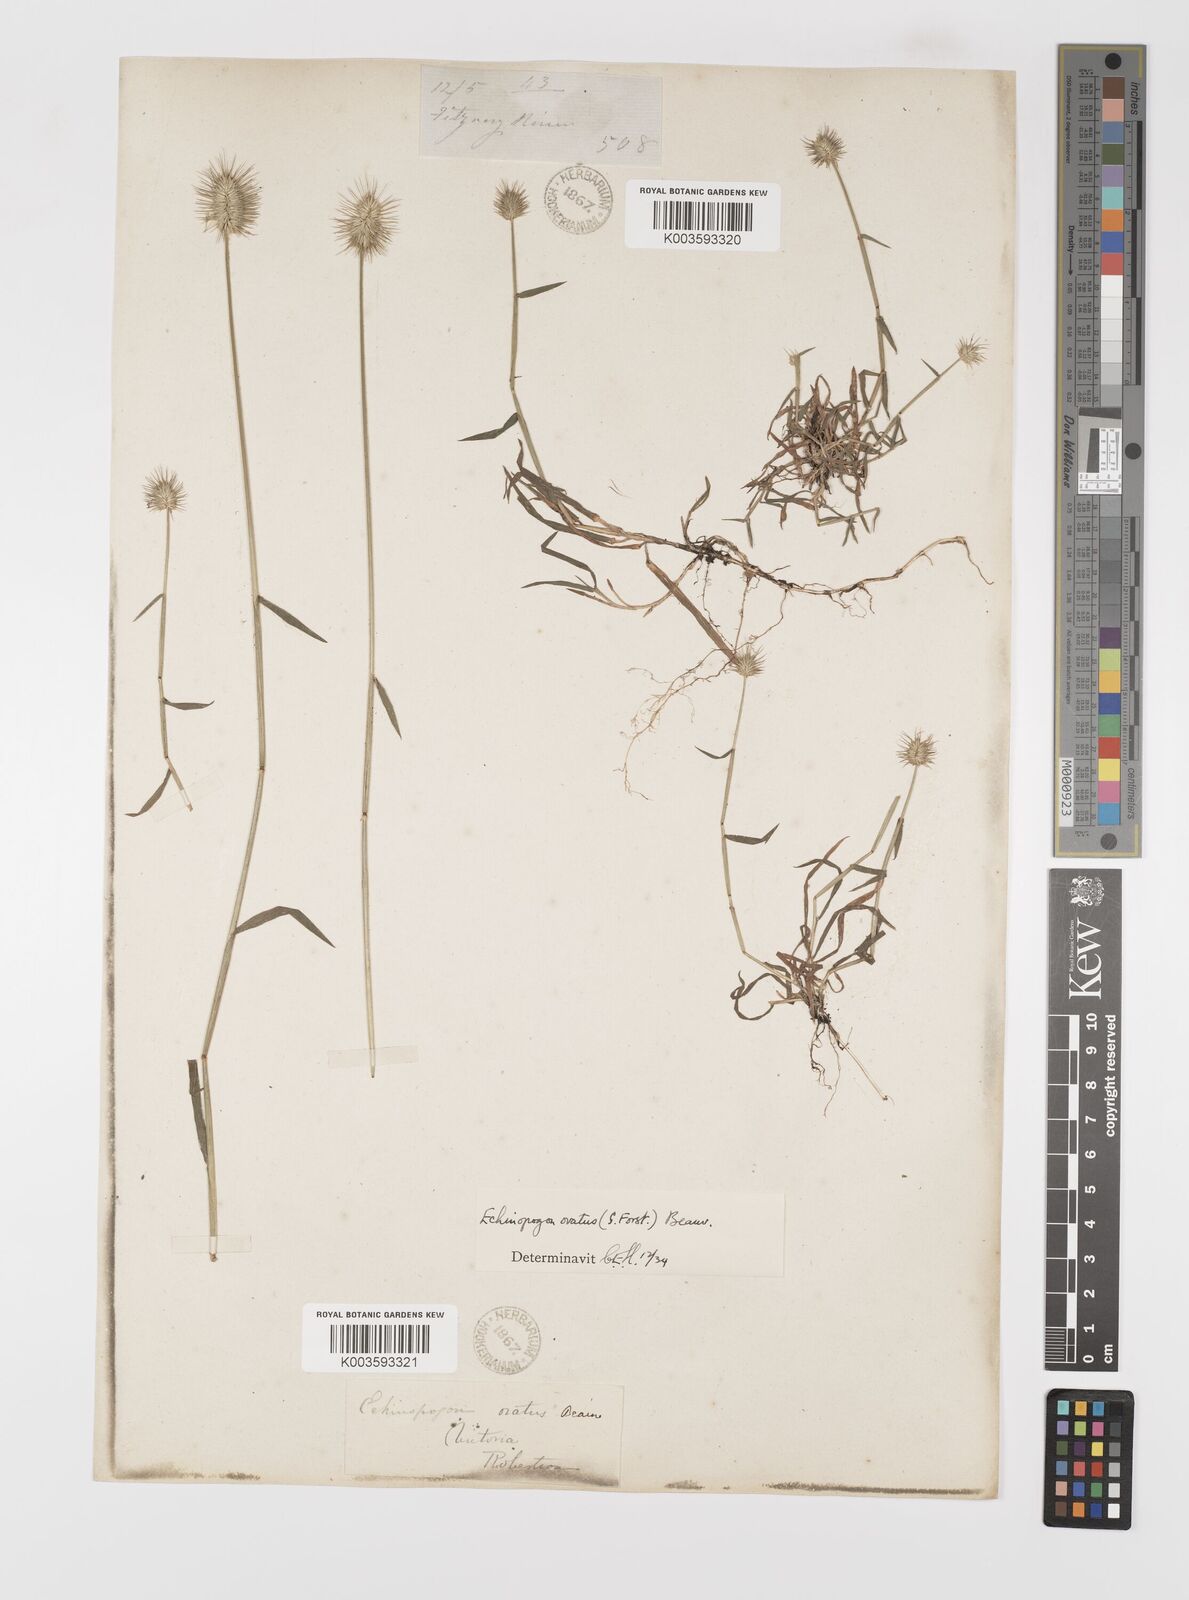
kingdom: Plantae
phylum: Tracheophyta
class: Liliopsida
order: Poales
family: Poaceae
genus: Echinopogon
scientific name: Echinopogon ovatus
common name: Hedgehog-grass
